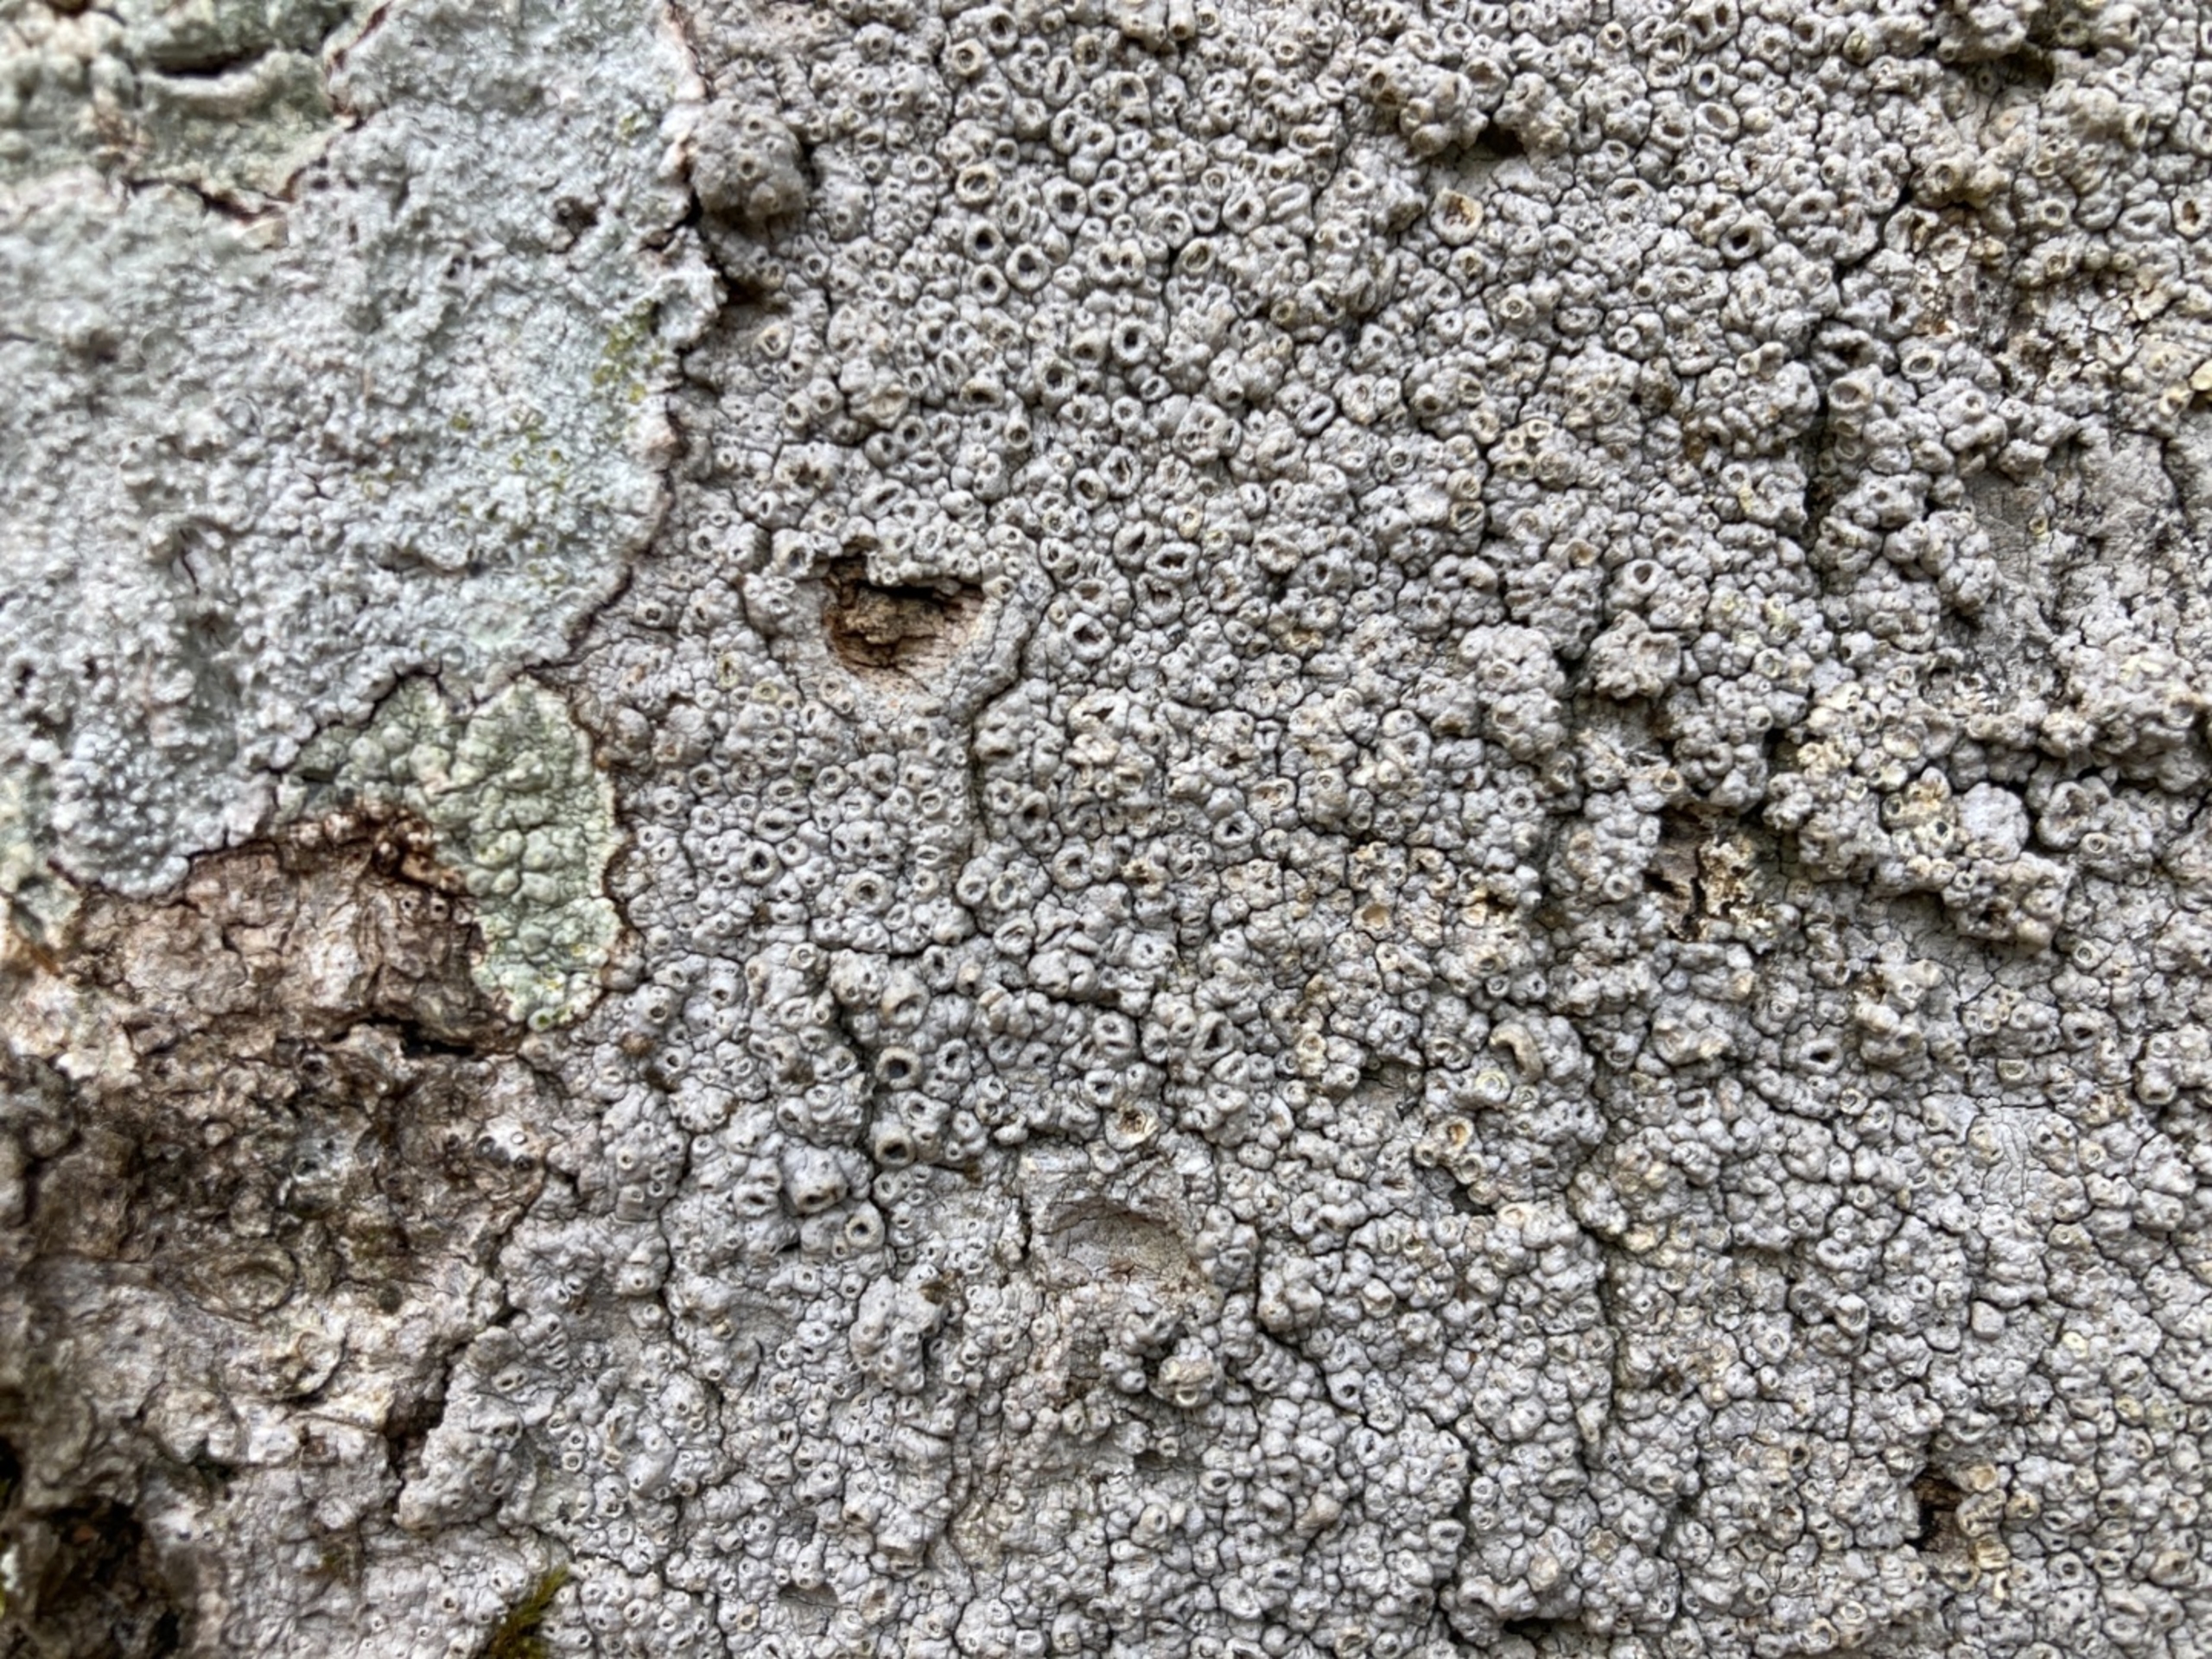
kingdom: Fungi
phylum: Ascomycota
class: Lecanoromycetes
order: Ostropales
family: Graphidaceae
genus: Thelotrema
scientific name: Thelotrema lepadinum
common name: Almindelig slørkantlav
